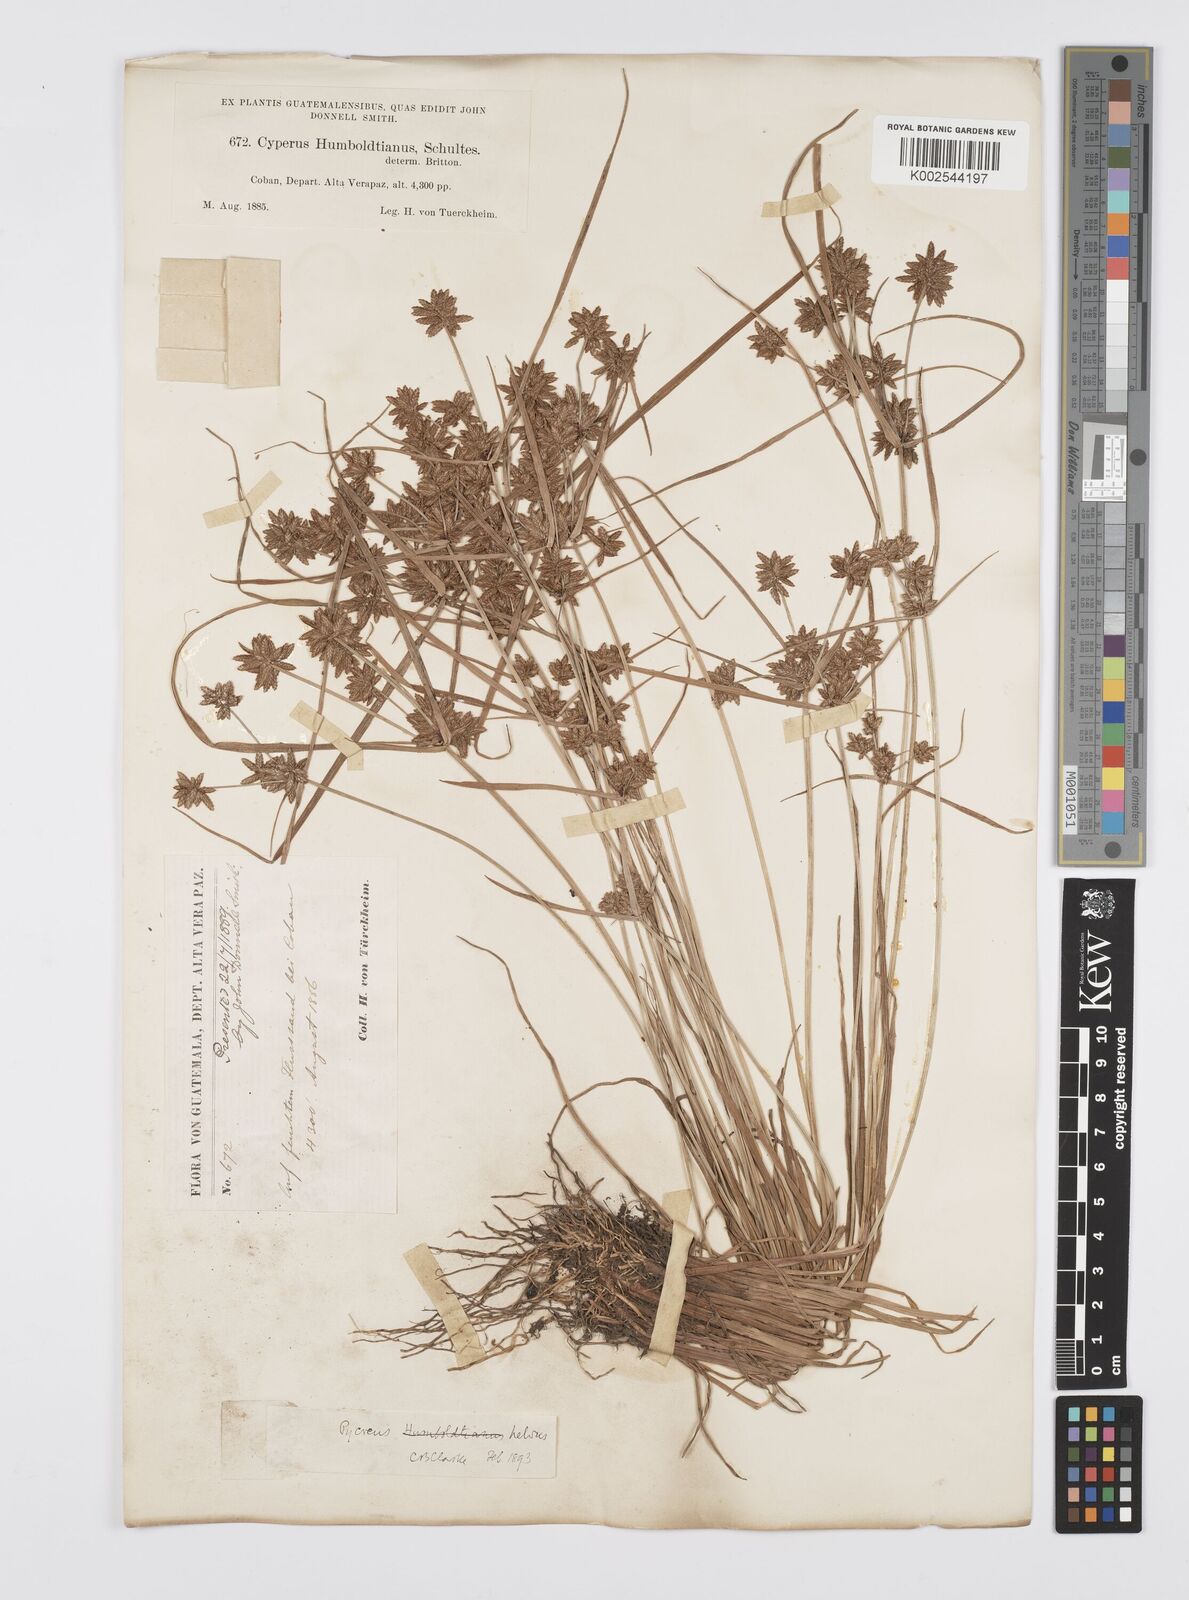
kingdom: Plantae
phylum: Tracheophyta
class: Liliopsida
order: Poales
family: Cyperaceae
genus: Cyperus
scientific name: Cyperus
